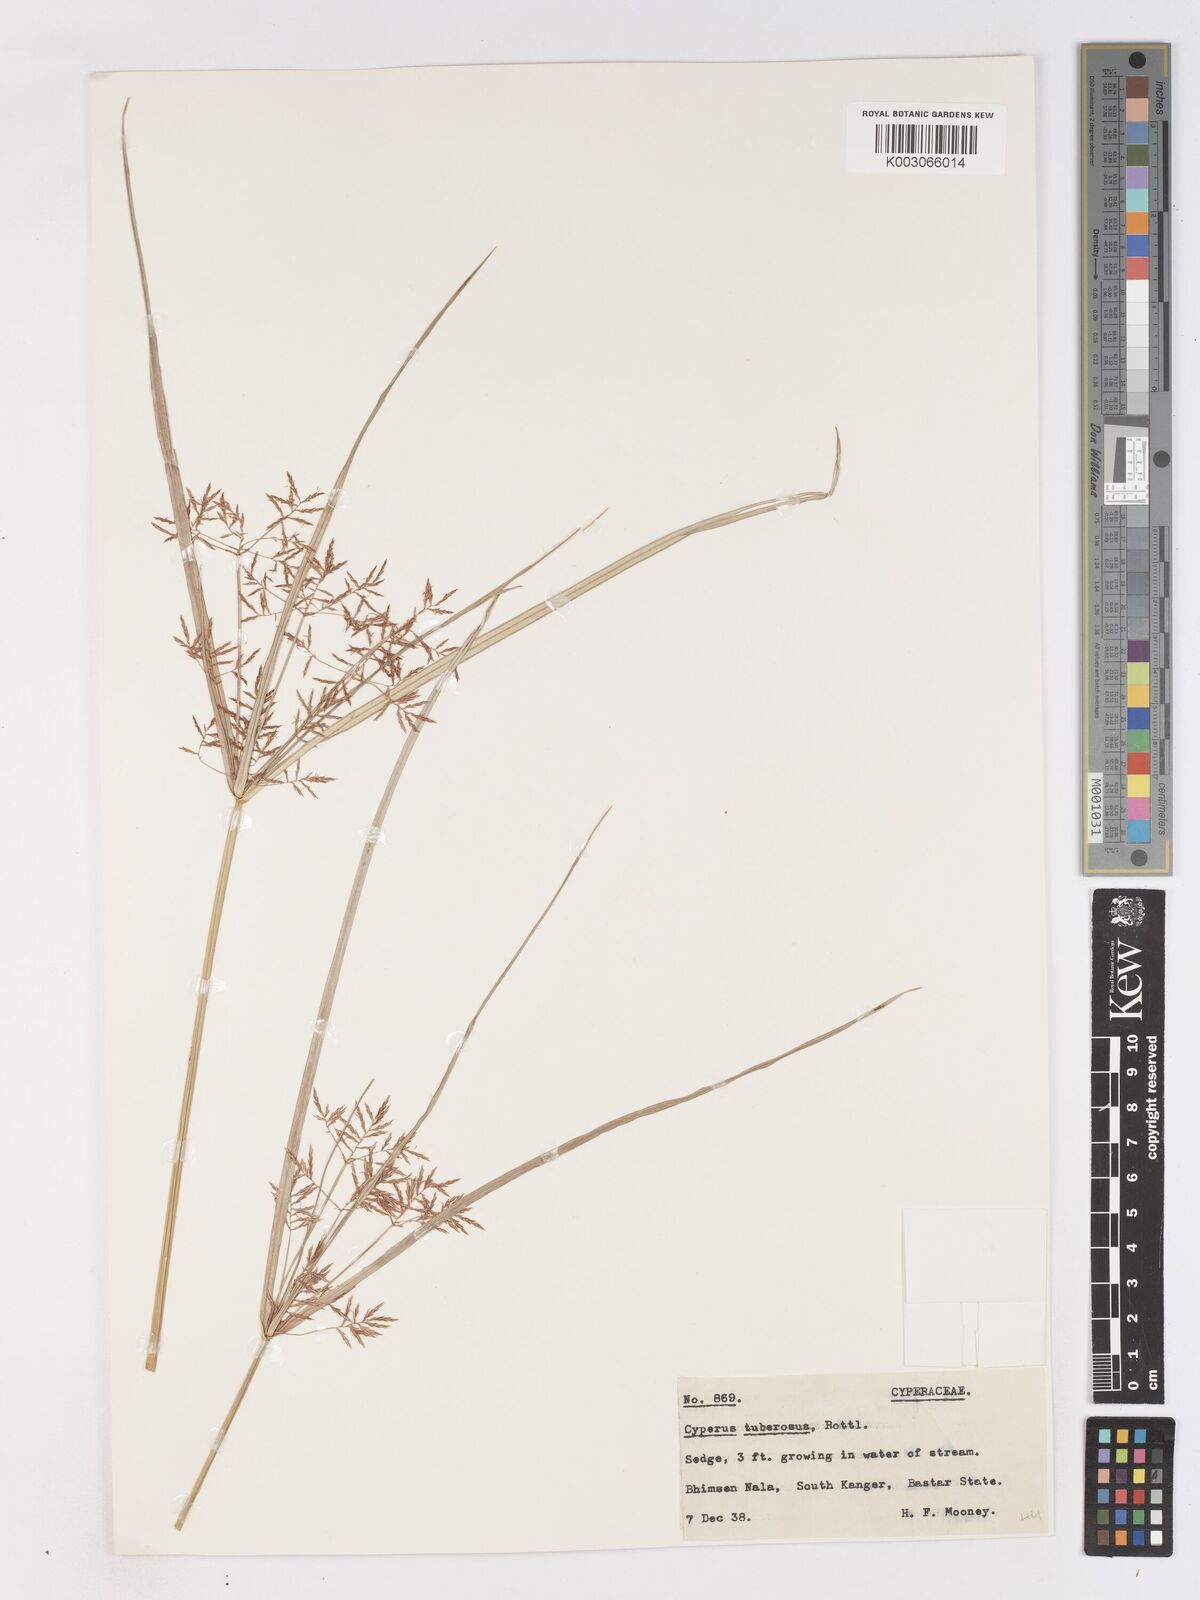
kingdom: Plantae
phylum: Tracheophyta
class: Liliopsida
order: Poales
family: Cyperaceae
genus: Cyperus
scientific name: Cyperus mitis
